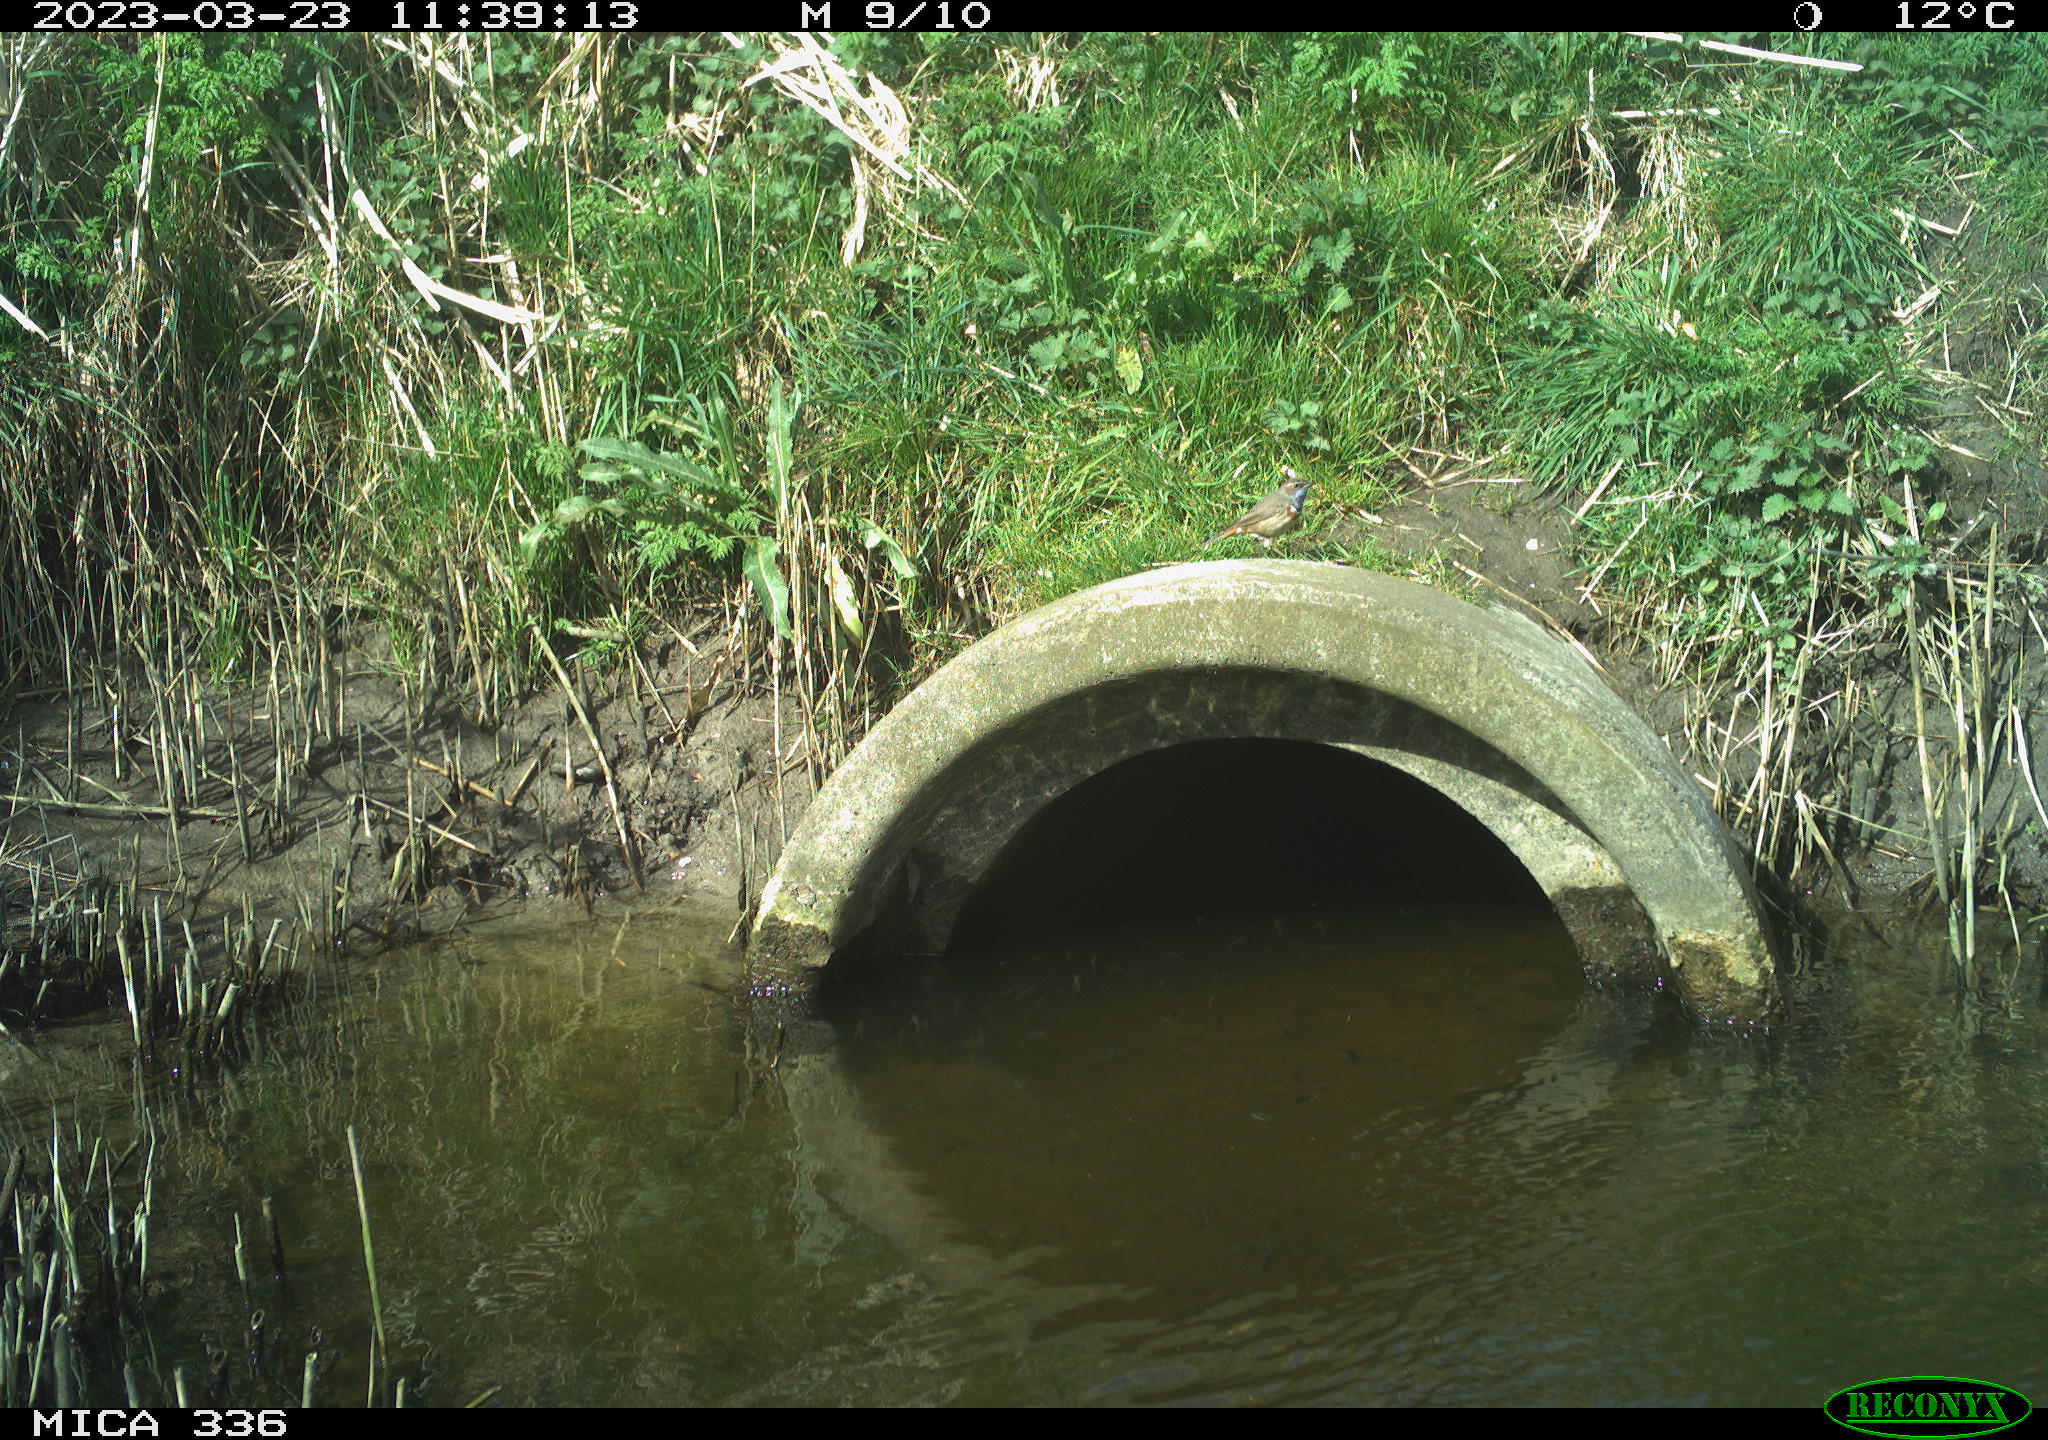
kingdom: Animalia
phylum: Chordata
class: Aves
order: Passeriformes
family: Muscicapidae
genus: Luscinia
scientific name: Luscinia svecica
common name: Bluethroat
